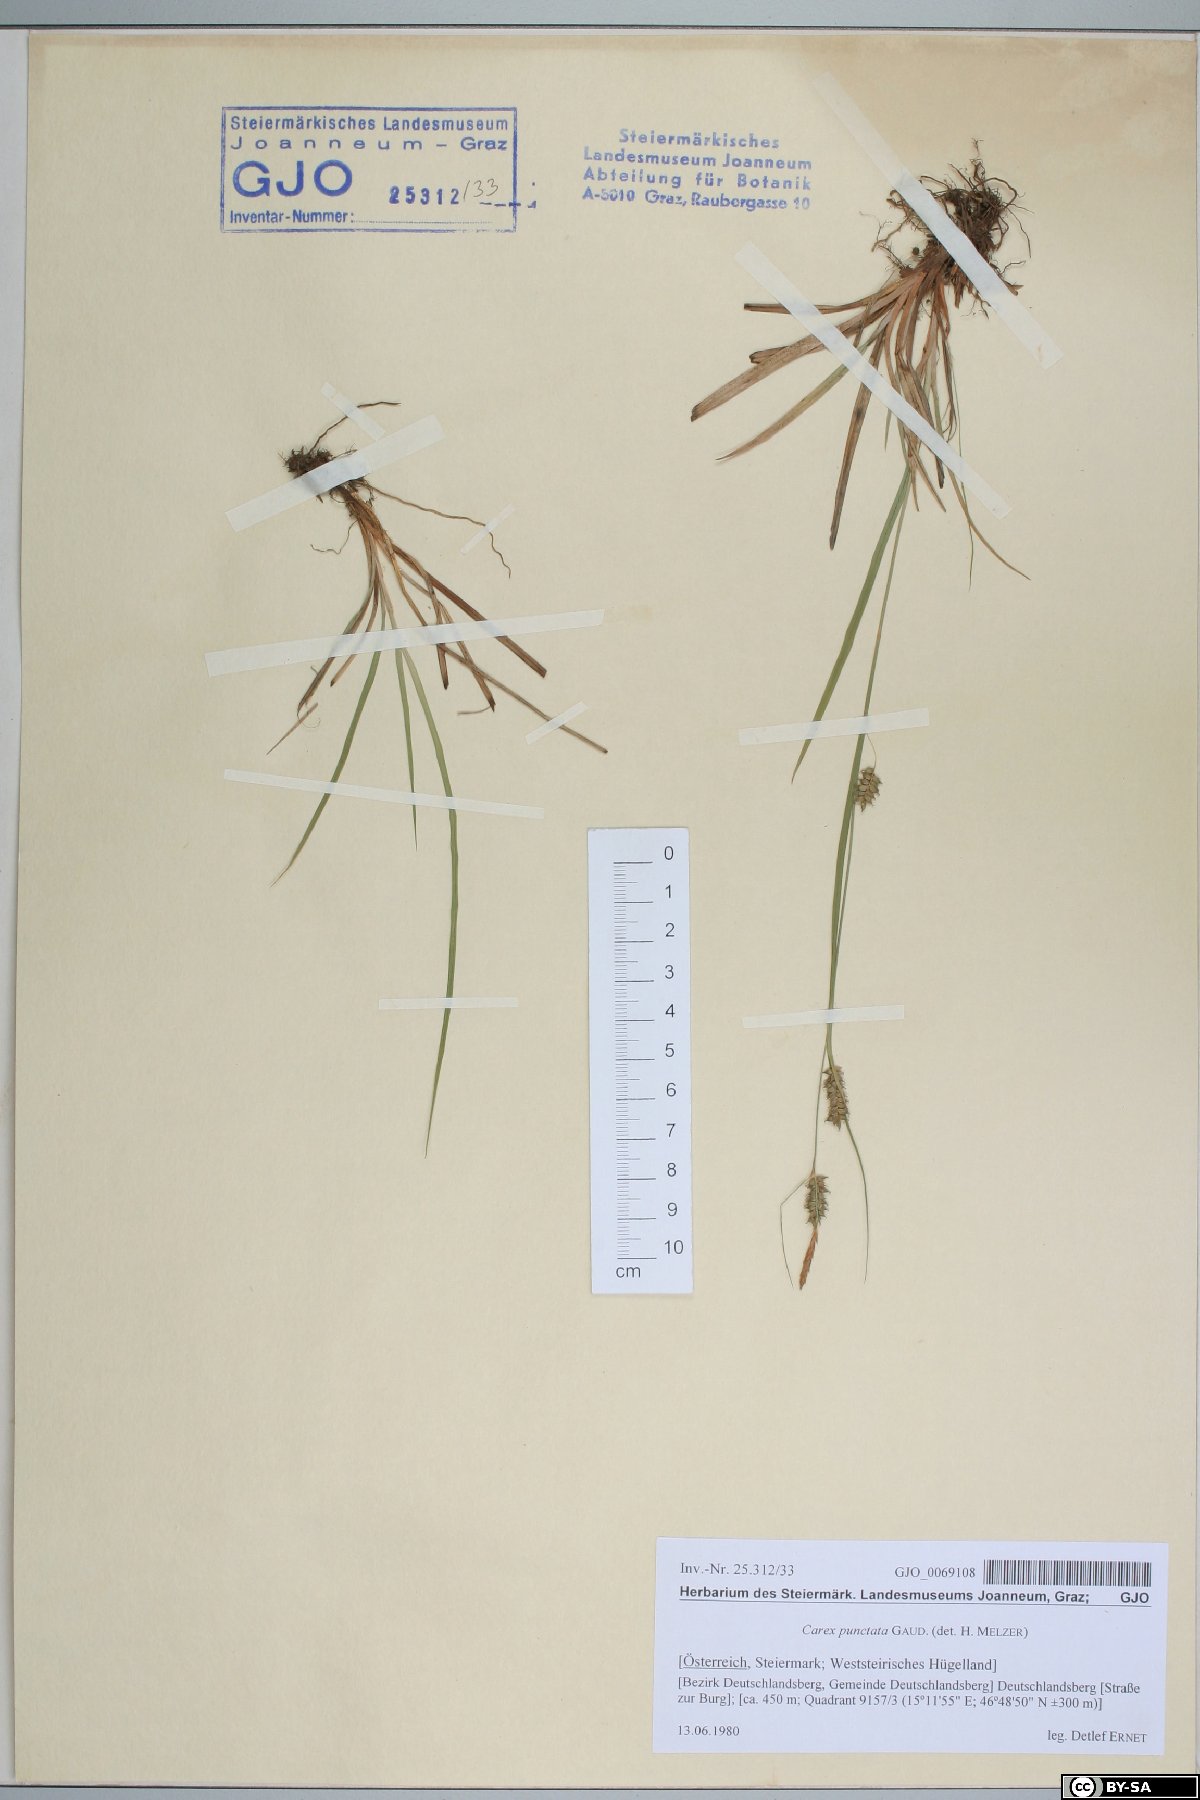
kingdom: Plantae
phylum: Tracheophyta
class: Liliopsida
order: Poales
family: Cyperaceae
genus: Carex
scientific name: Carex punctata
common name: Dotted sedge
